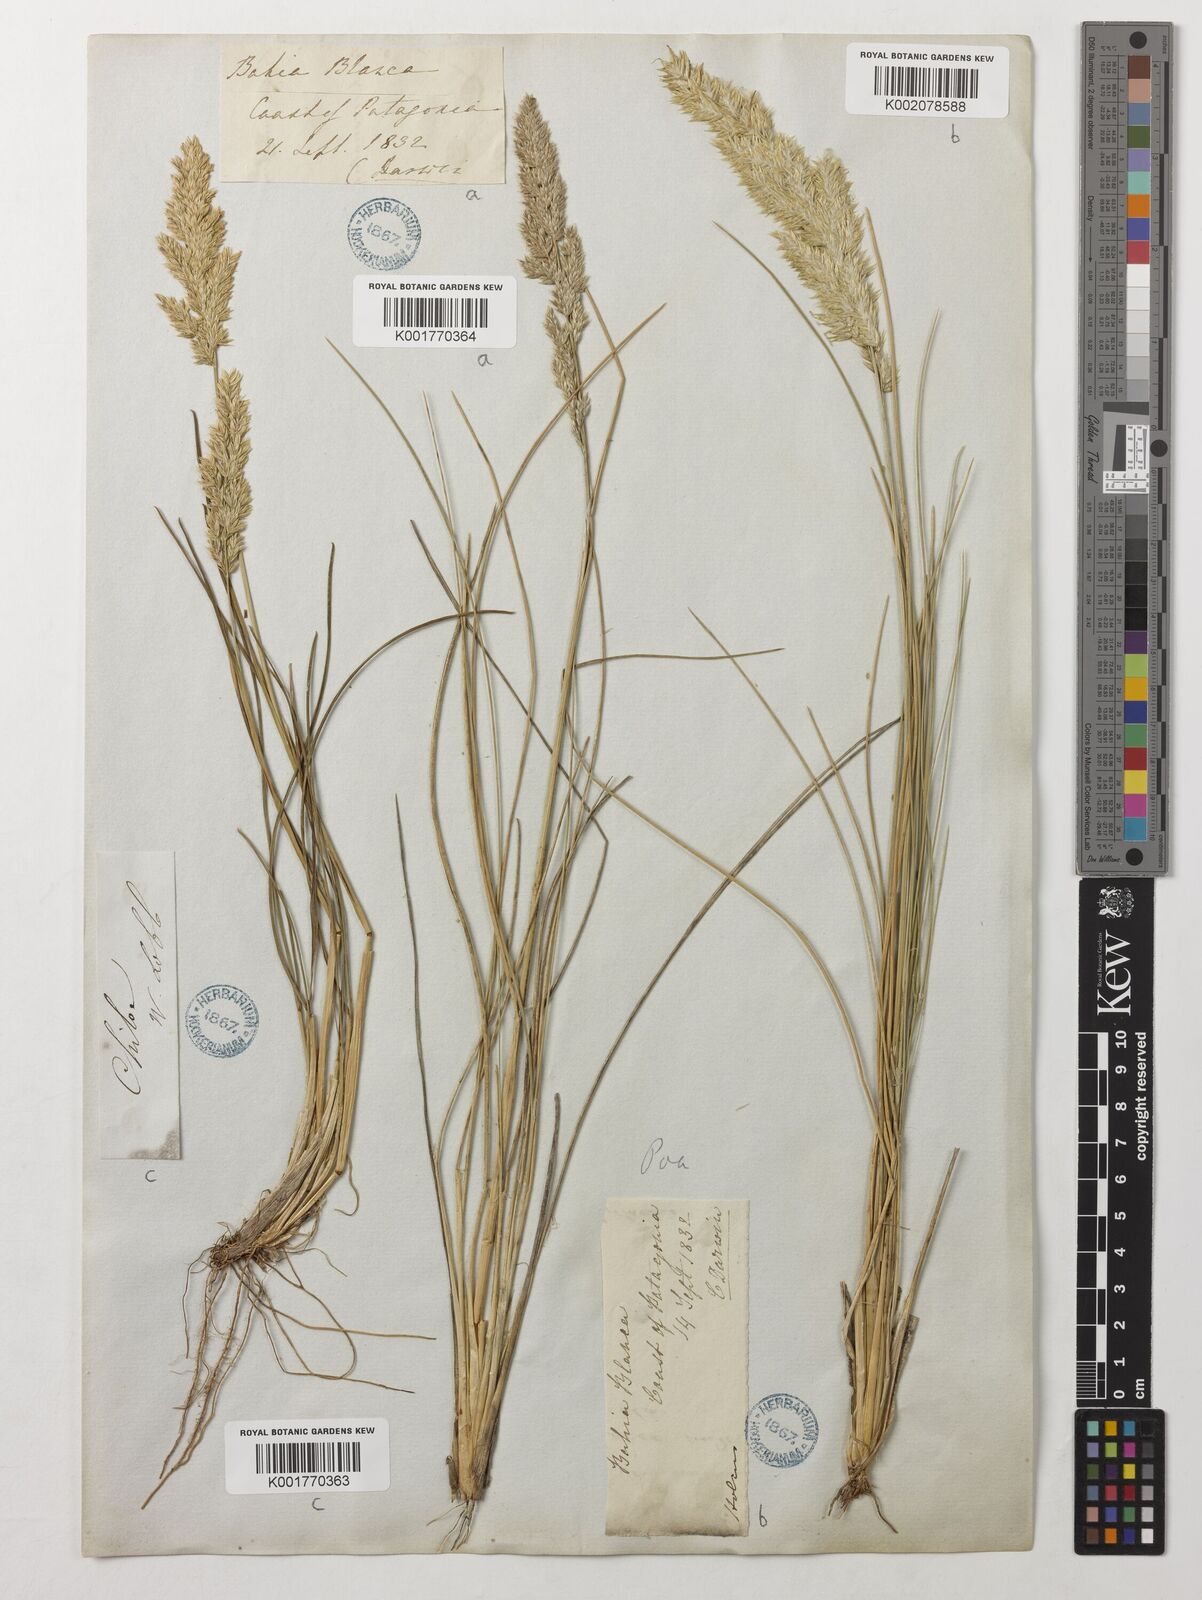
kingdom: Plantae
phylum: Tracheophyta
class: Liliopsida
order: Poales
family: Poaceae
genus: Poa
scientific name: Poa ligularis
